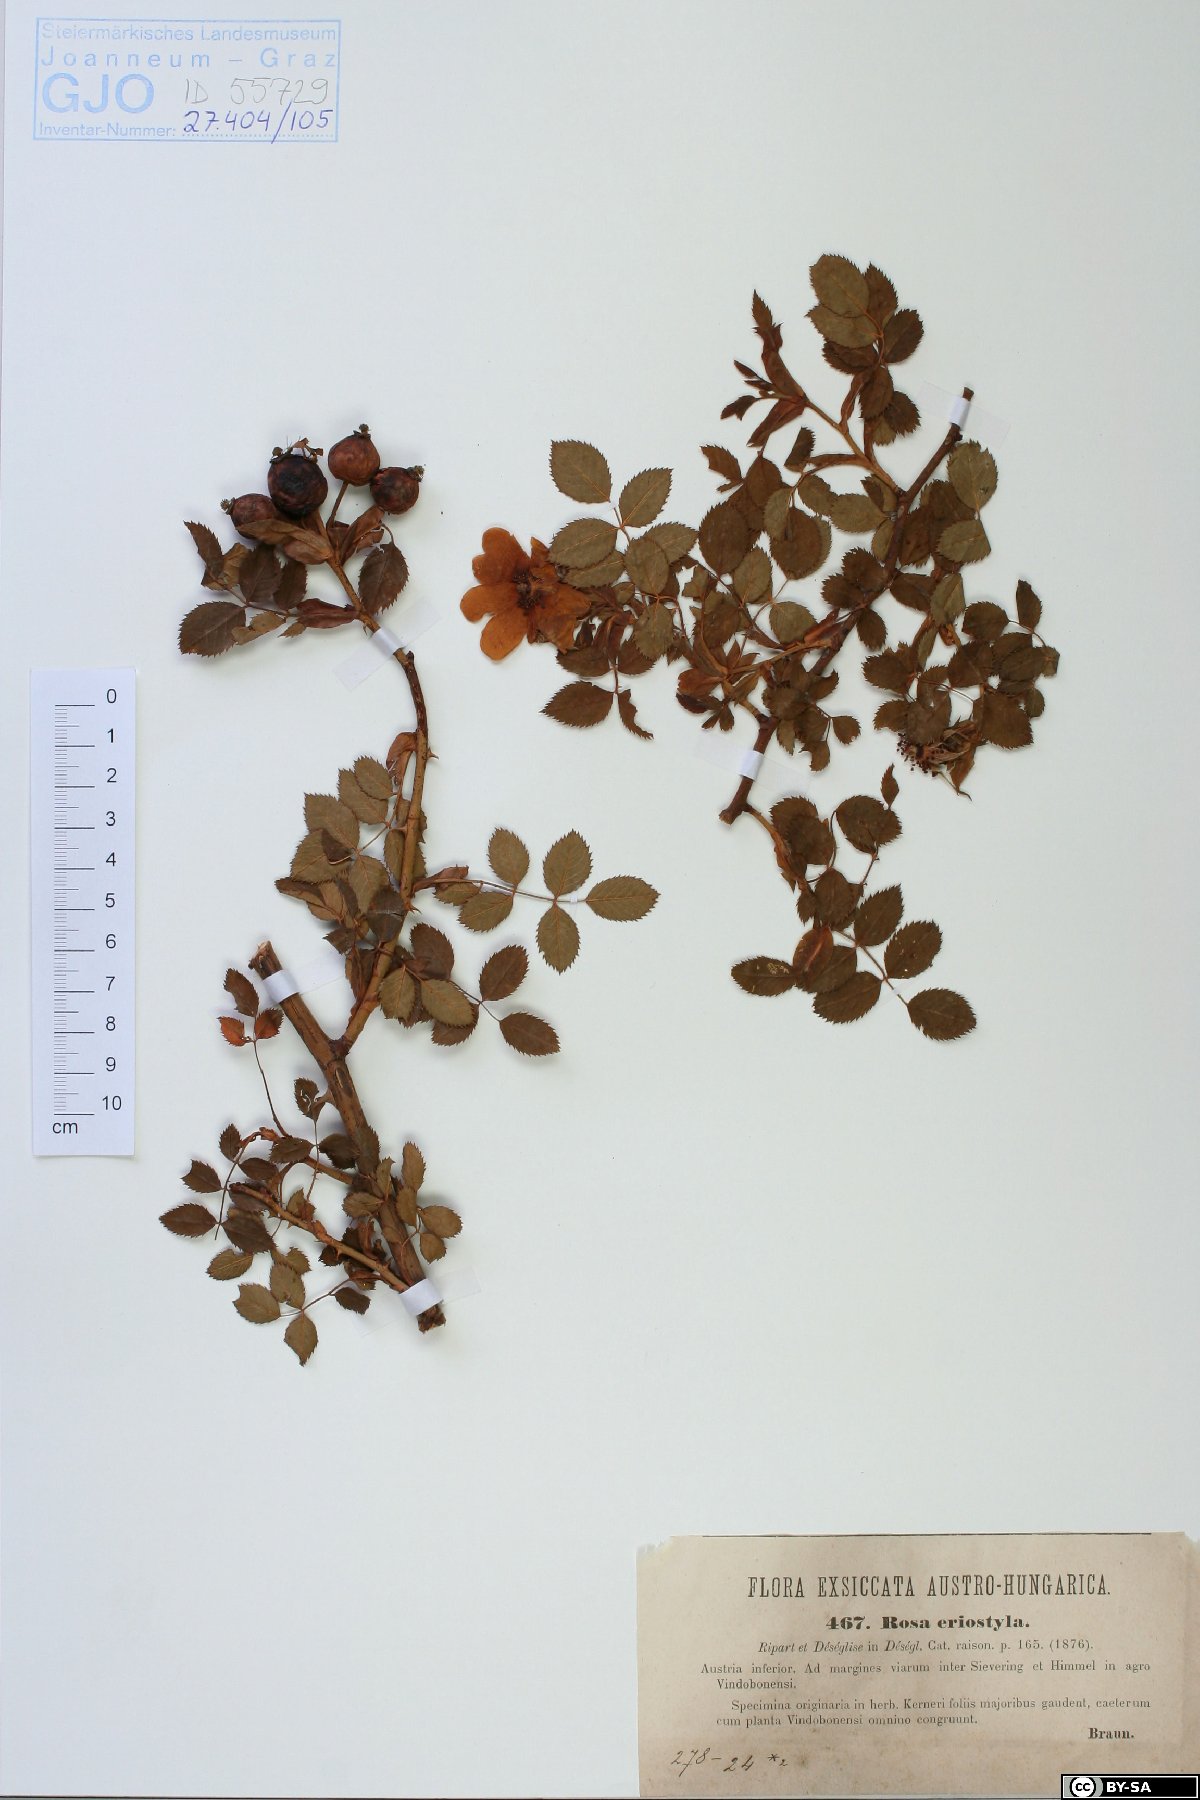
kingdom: Plantae
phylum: Tracheophyta
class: Magnoliopsida
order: Rosales
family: Rosaceae
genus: Rosa
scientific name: Rosa canina
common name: Dog rose
